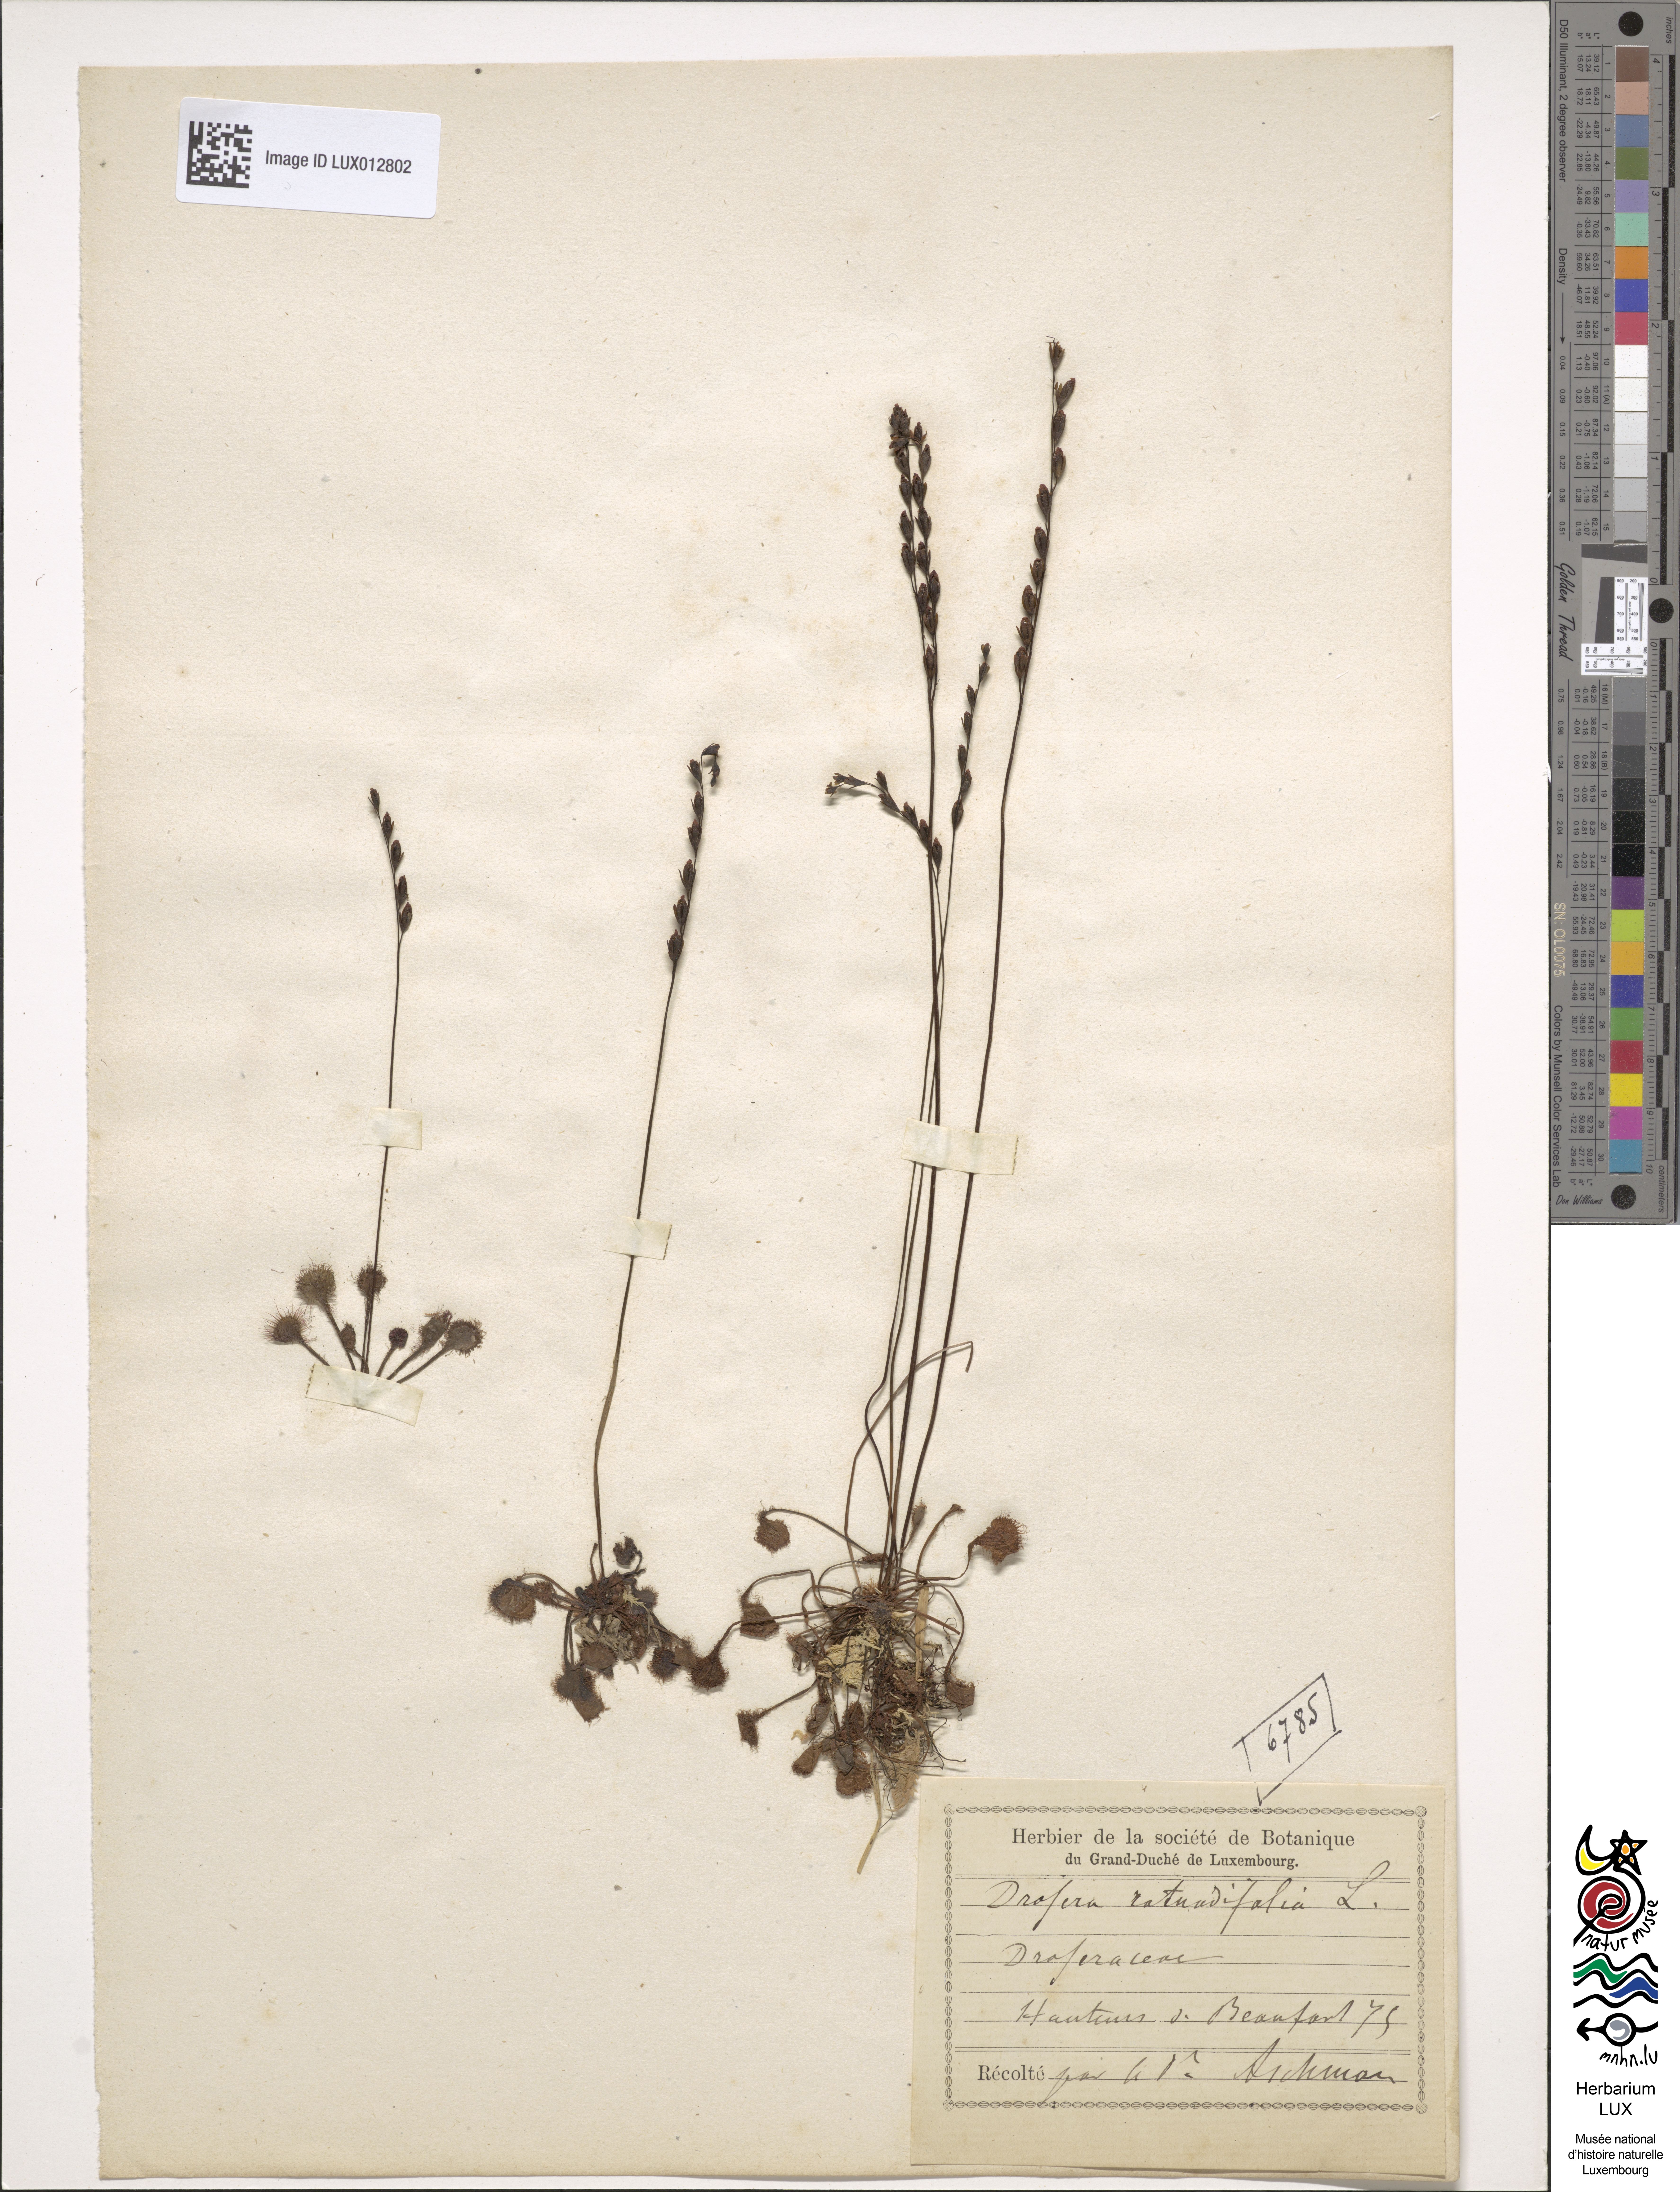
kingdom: Plantae
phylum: Tracheophyta
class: Magnoliopsida
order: Caryophyllales
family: Droseraceae
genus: Drosera
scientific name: Drosera rotundifolia
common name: Round-leaved sundew
